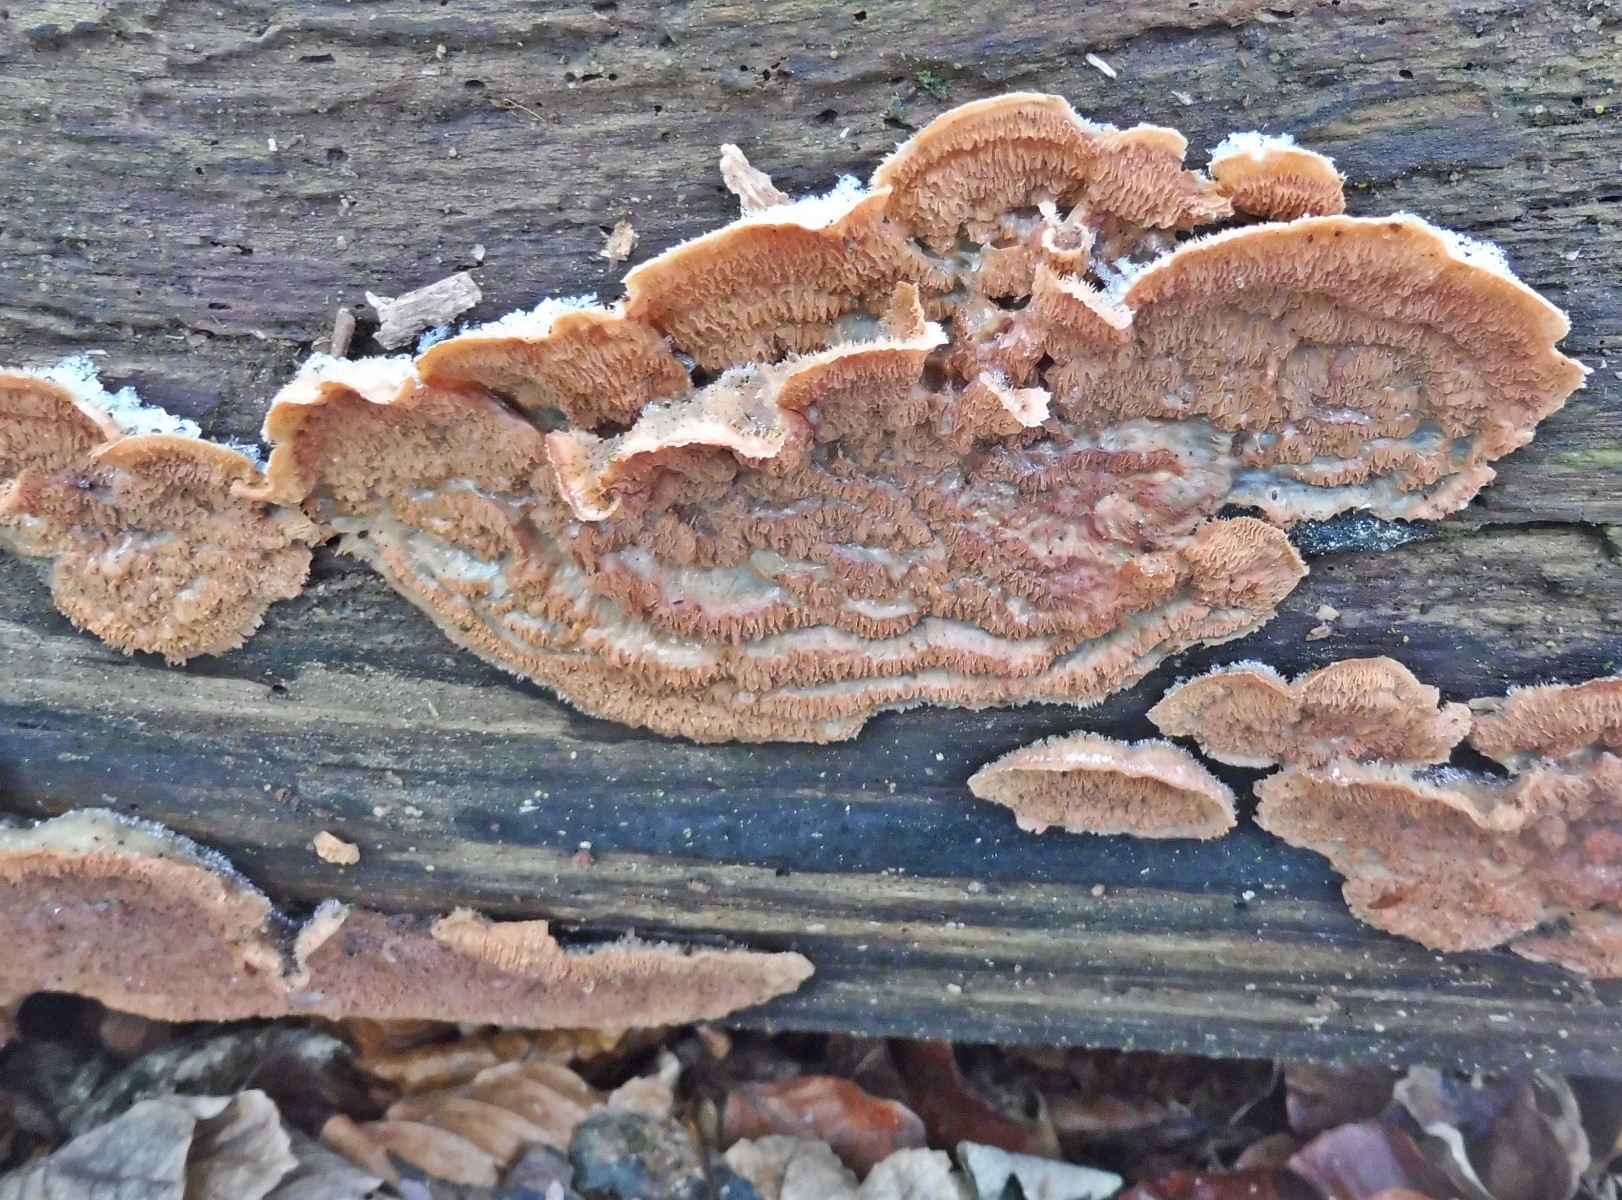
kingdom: Fungi
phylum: Basidiomycota
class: Agaricomycetes
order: Polyporales
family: Meruliaceae
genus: Phlebia
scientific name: Phlebia tremellosa
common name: bævrende åresvamp
